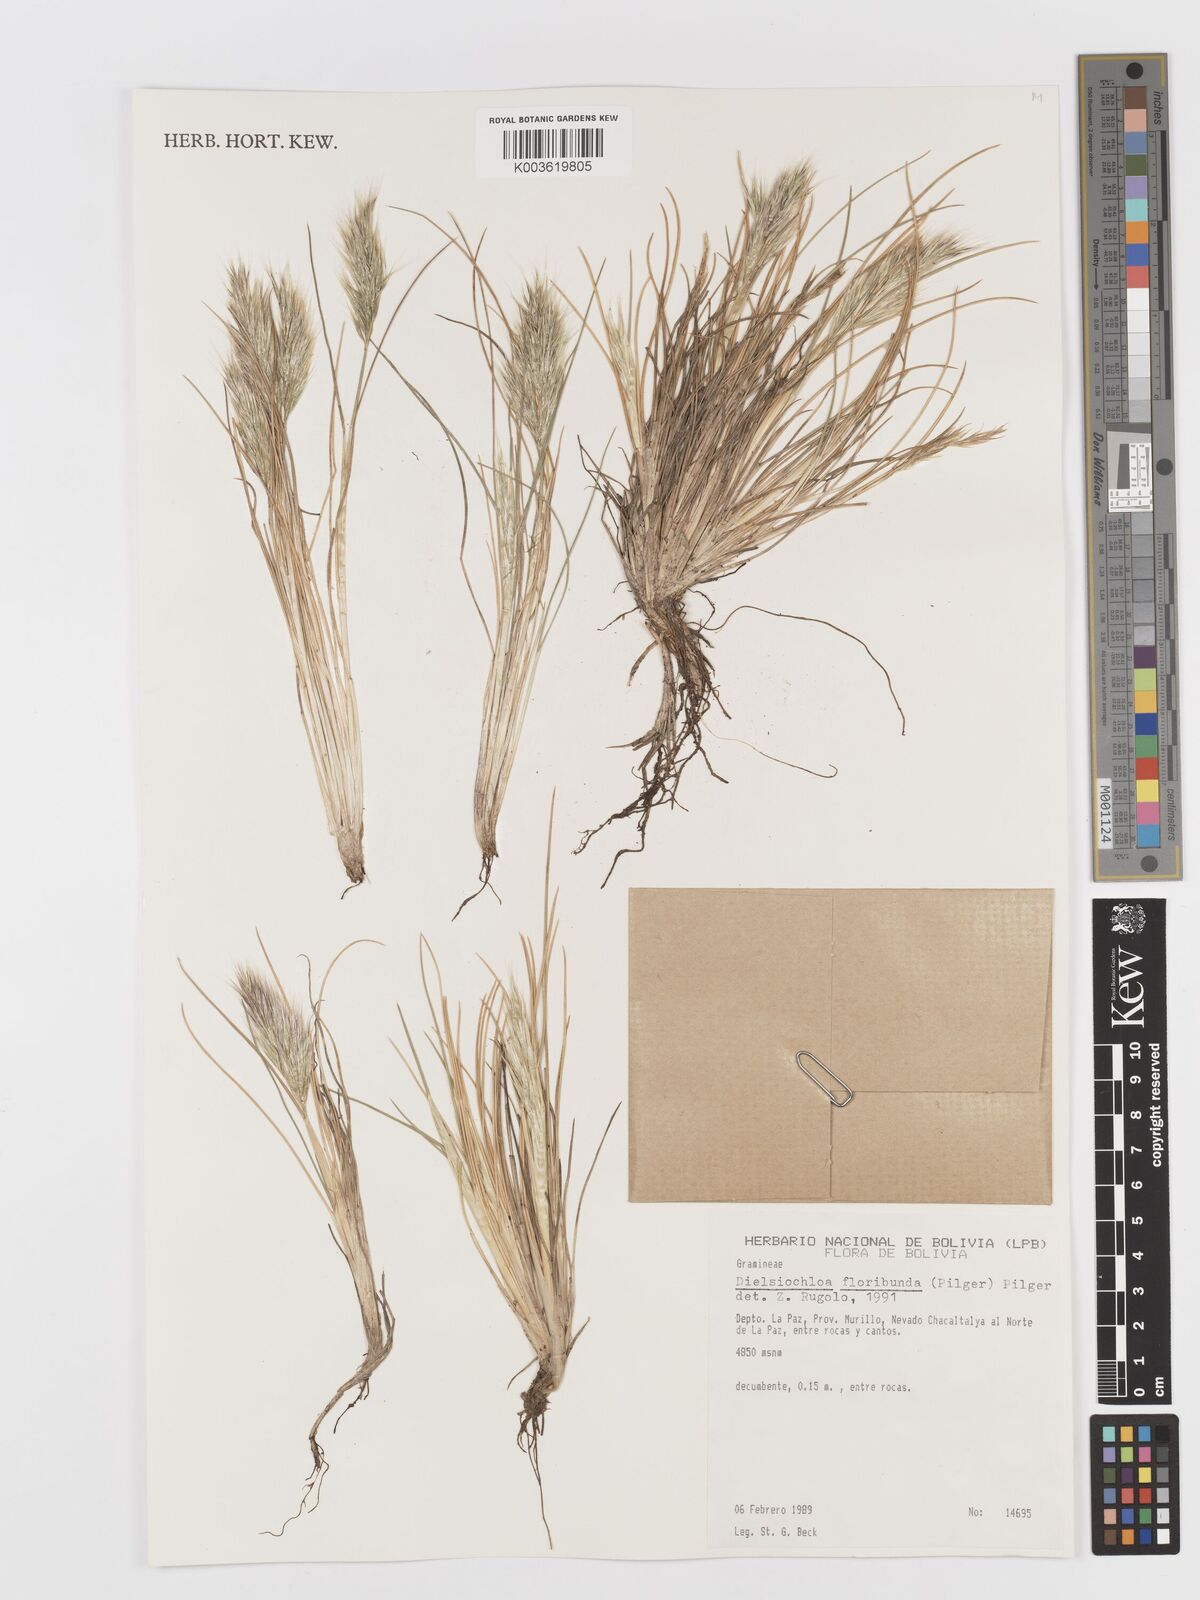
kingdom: Plantae
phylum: Tracheophyta
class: Liliopsida
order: Poales
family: Poaceae
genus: Festuca
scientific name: Festuca floribunda
